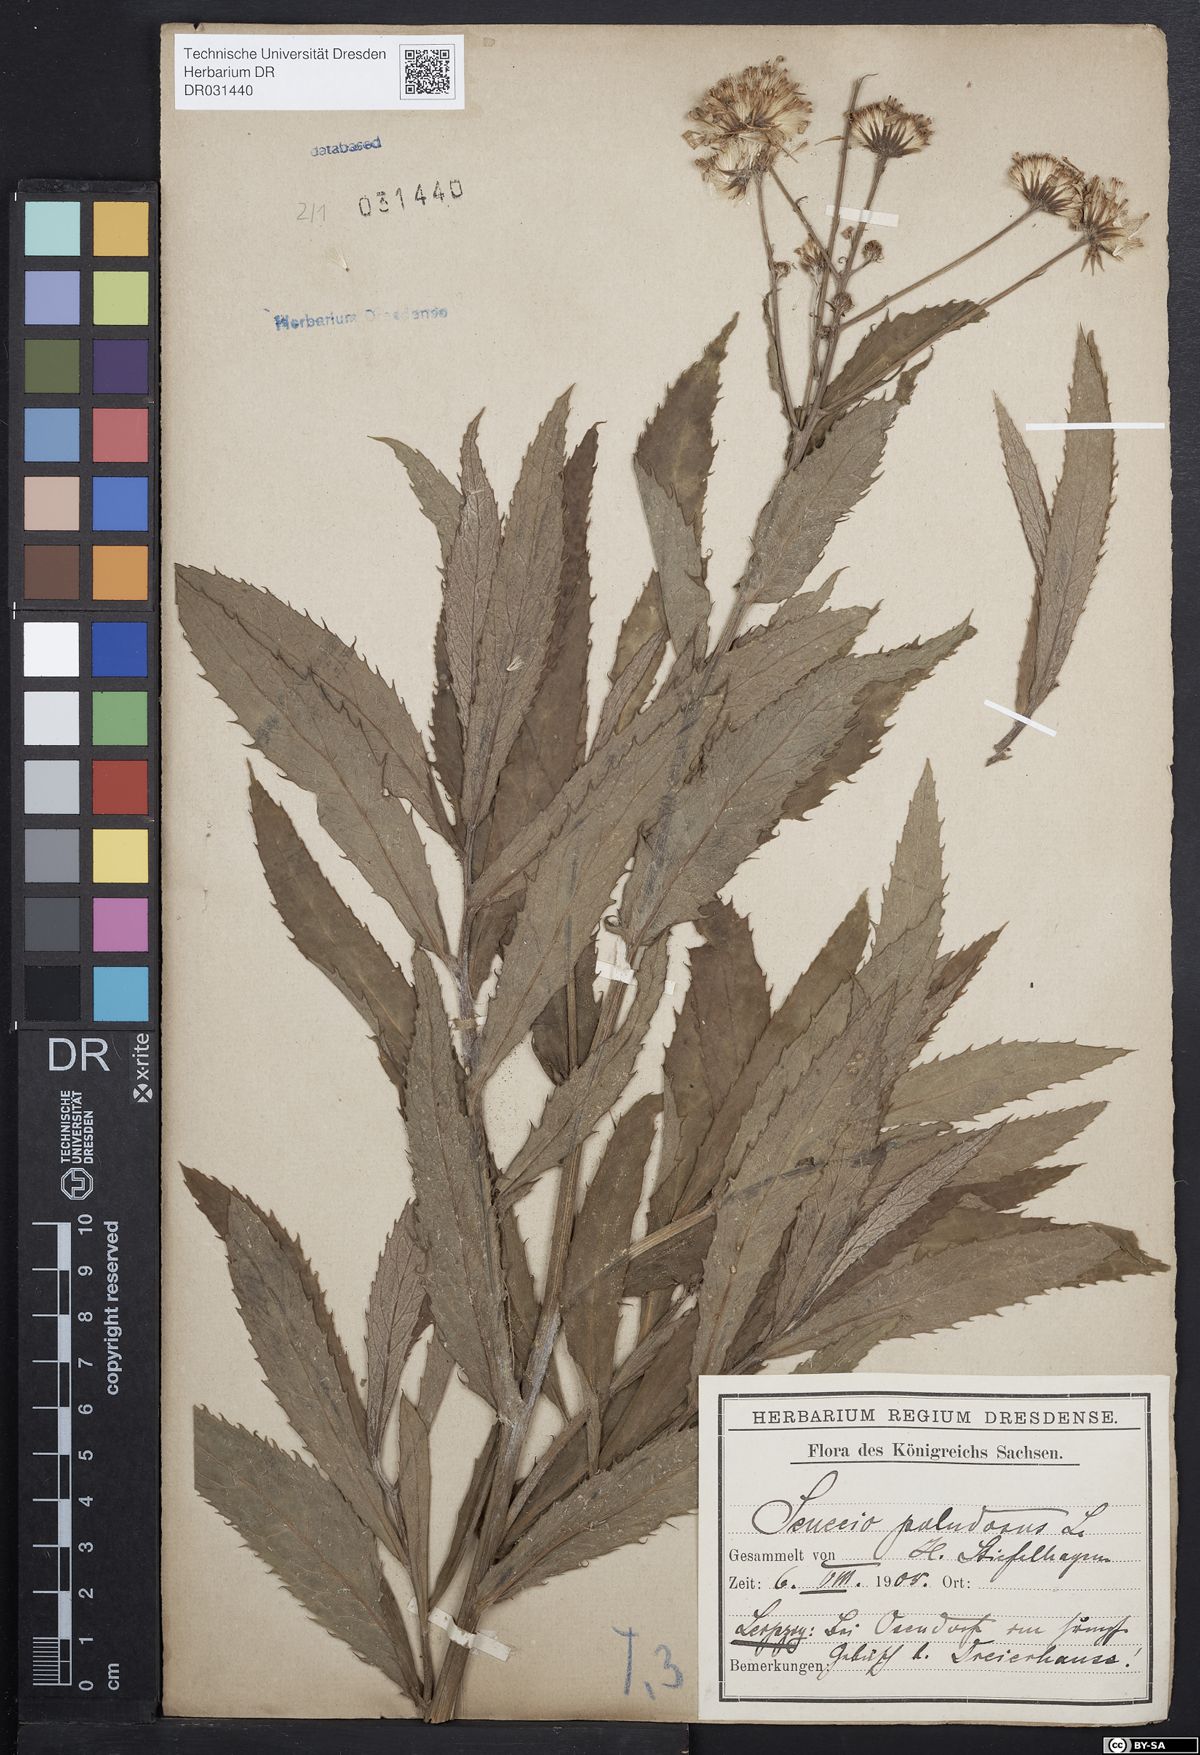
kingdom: Plantae
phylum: Tracheophyta
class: Magnoliopsida
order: Asterales
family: Asteraceae
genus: Jacobaea
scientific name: Jacobaea paludosa
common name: Fen ragwort
